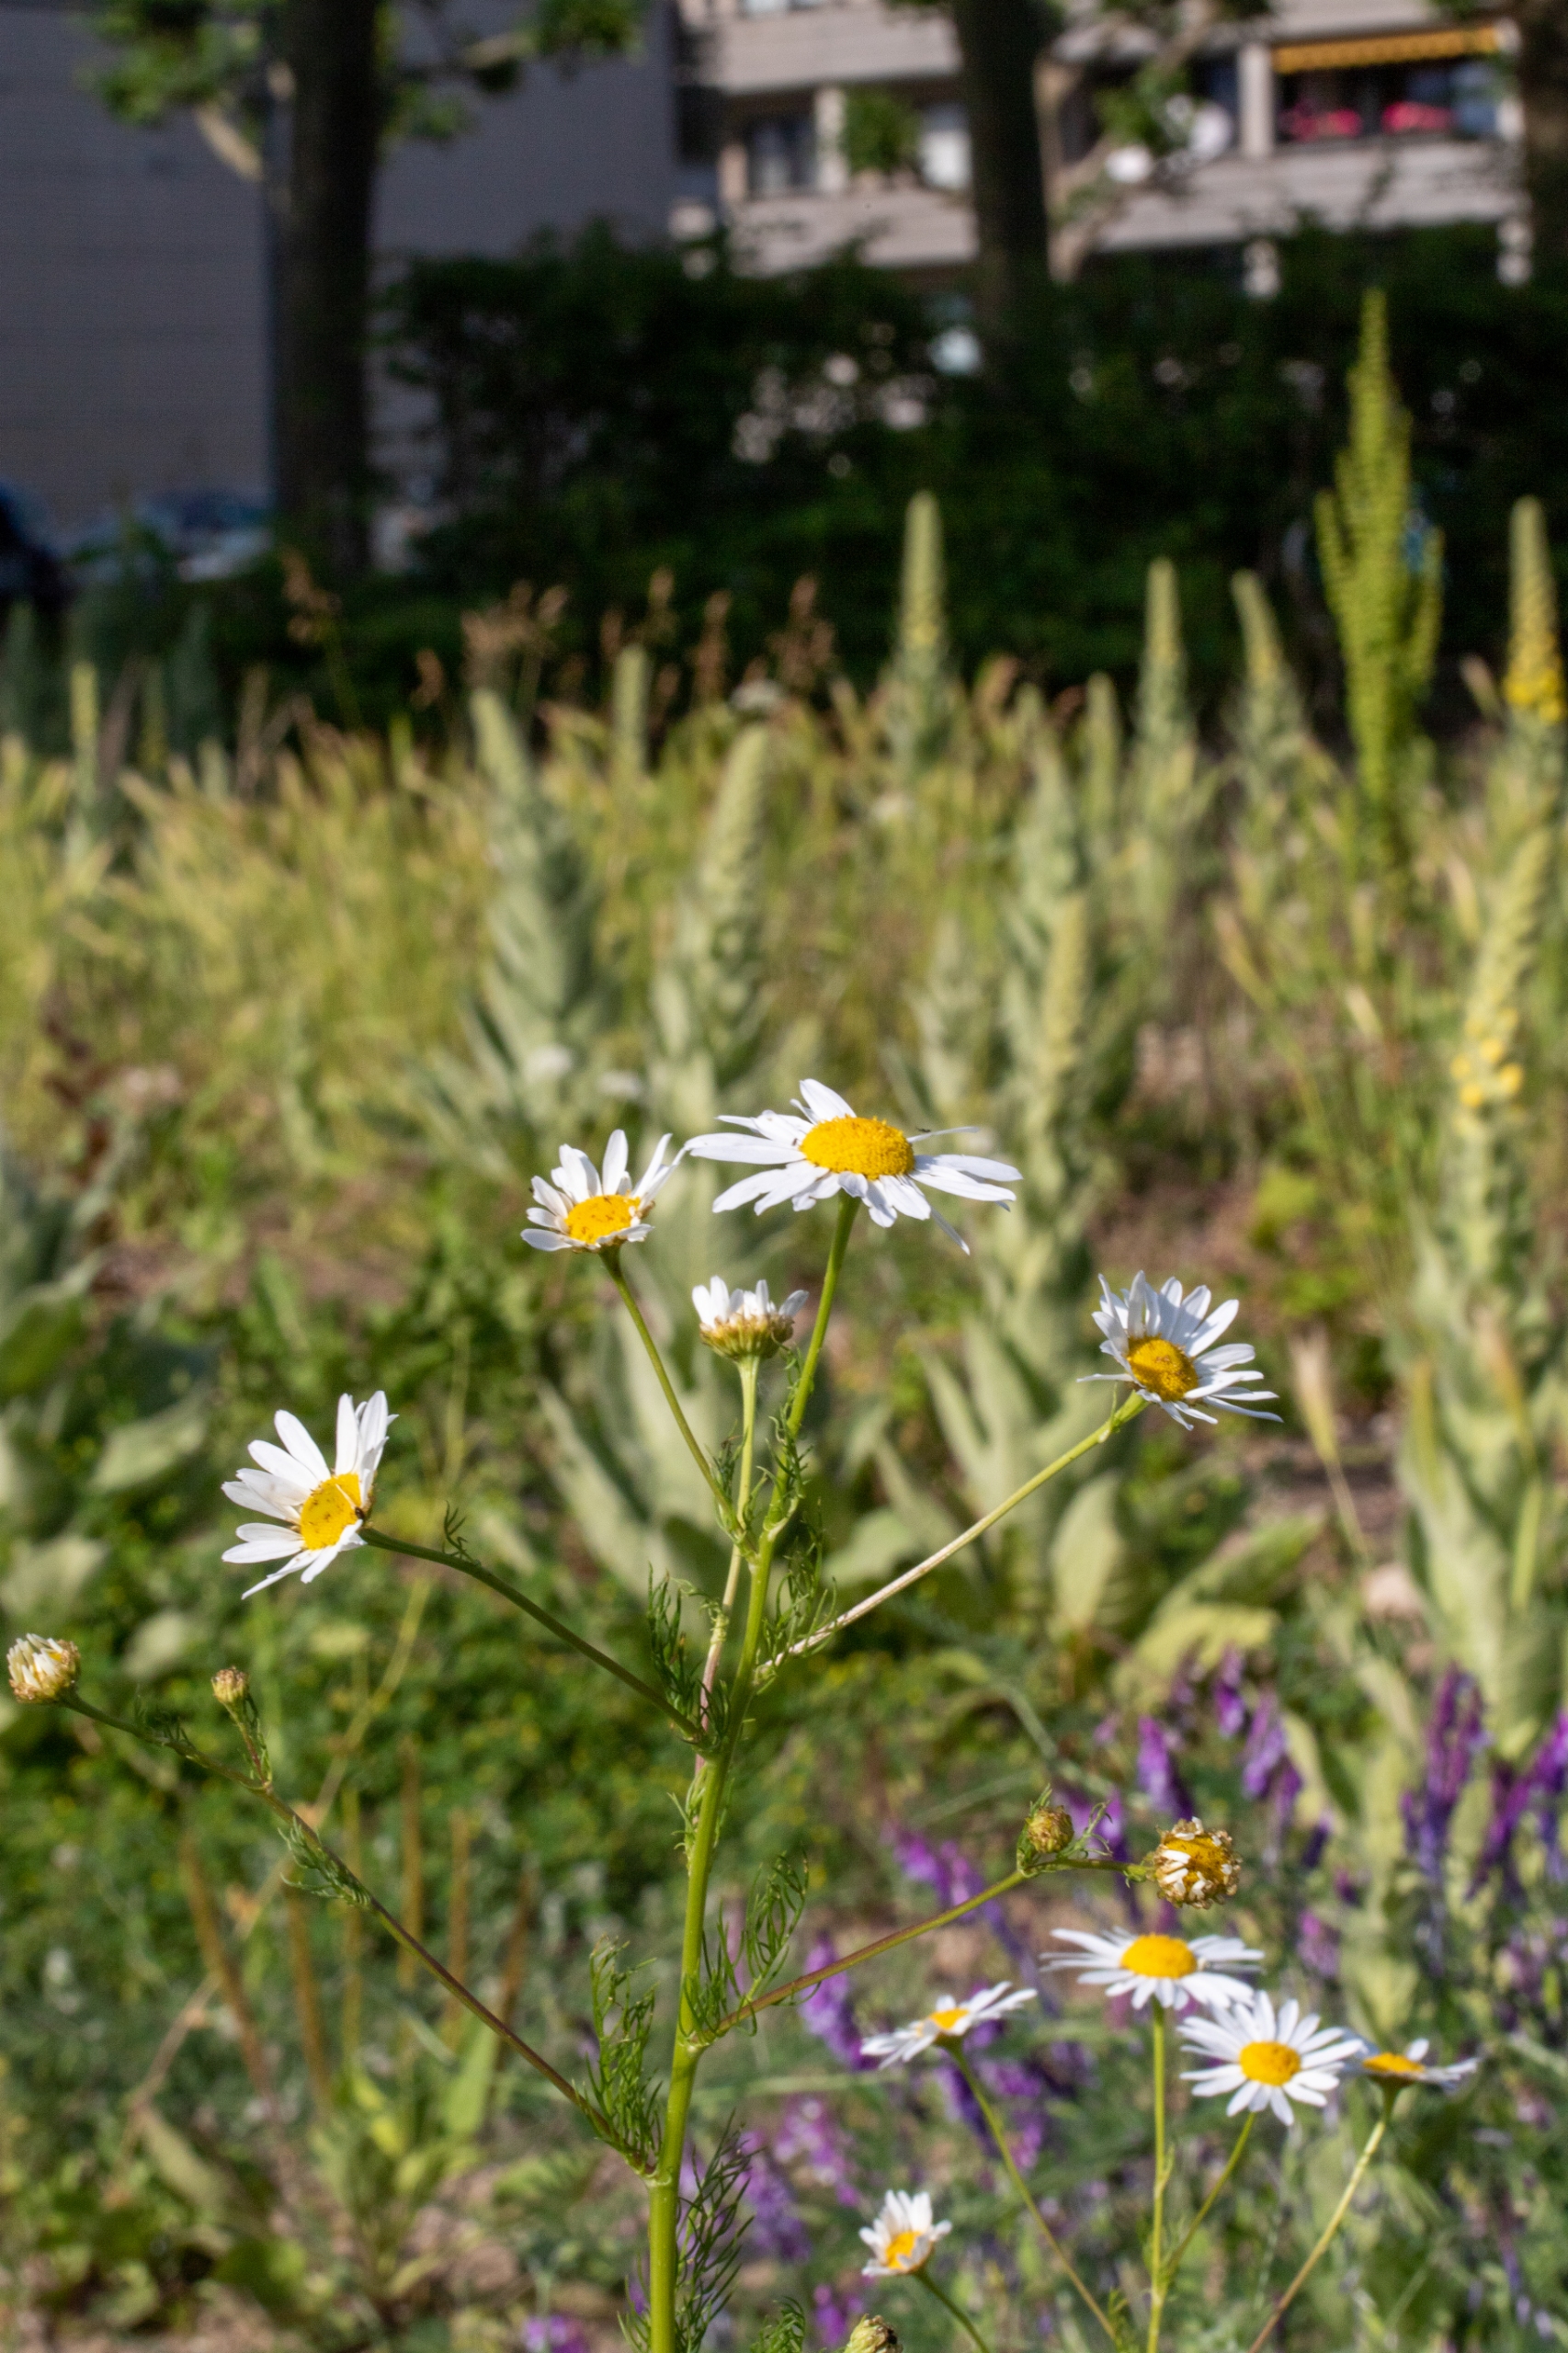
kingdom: Plantae
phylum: Tracheophyta
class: Magnoliopsida
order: Asterales
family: Asteraceae
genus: Tripleurospermum
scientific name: Tripleurospermum inodorum
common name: Lugtløs kamille
